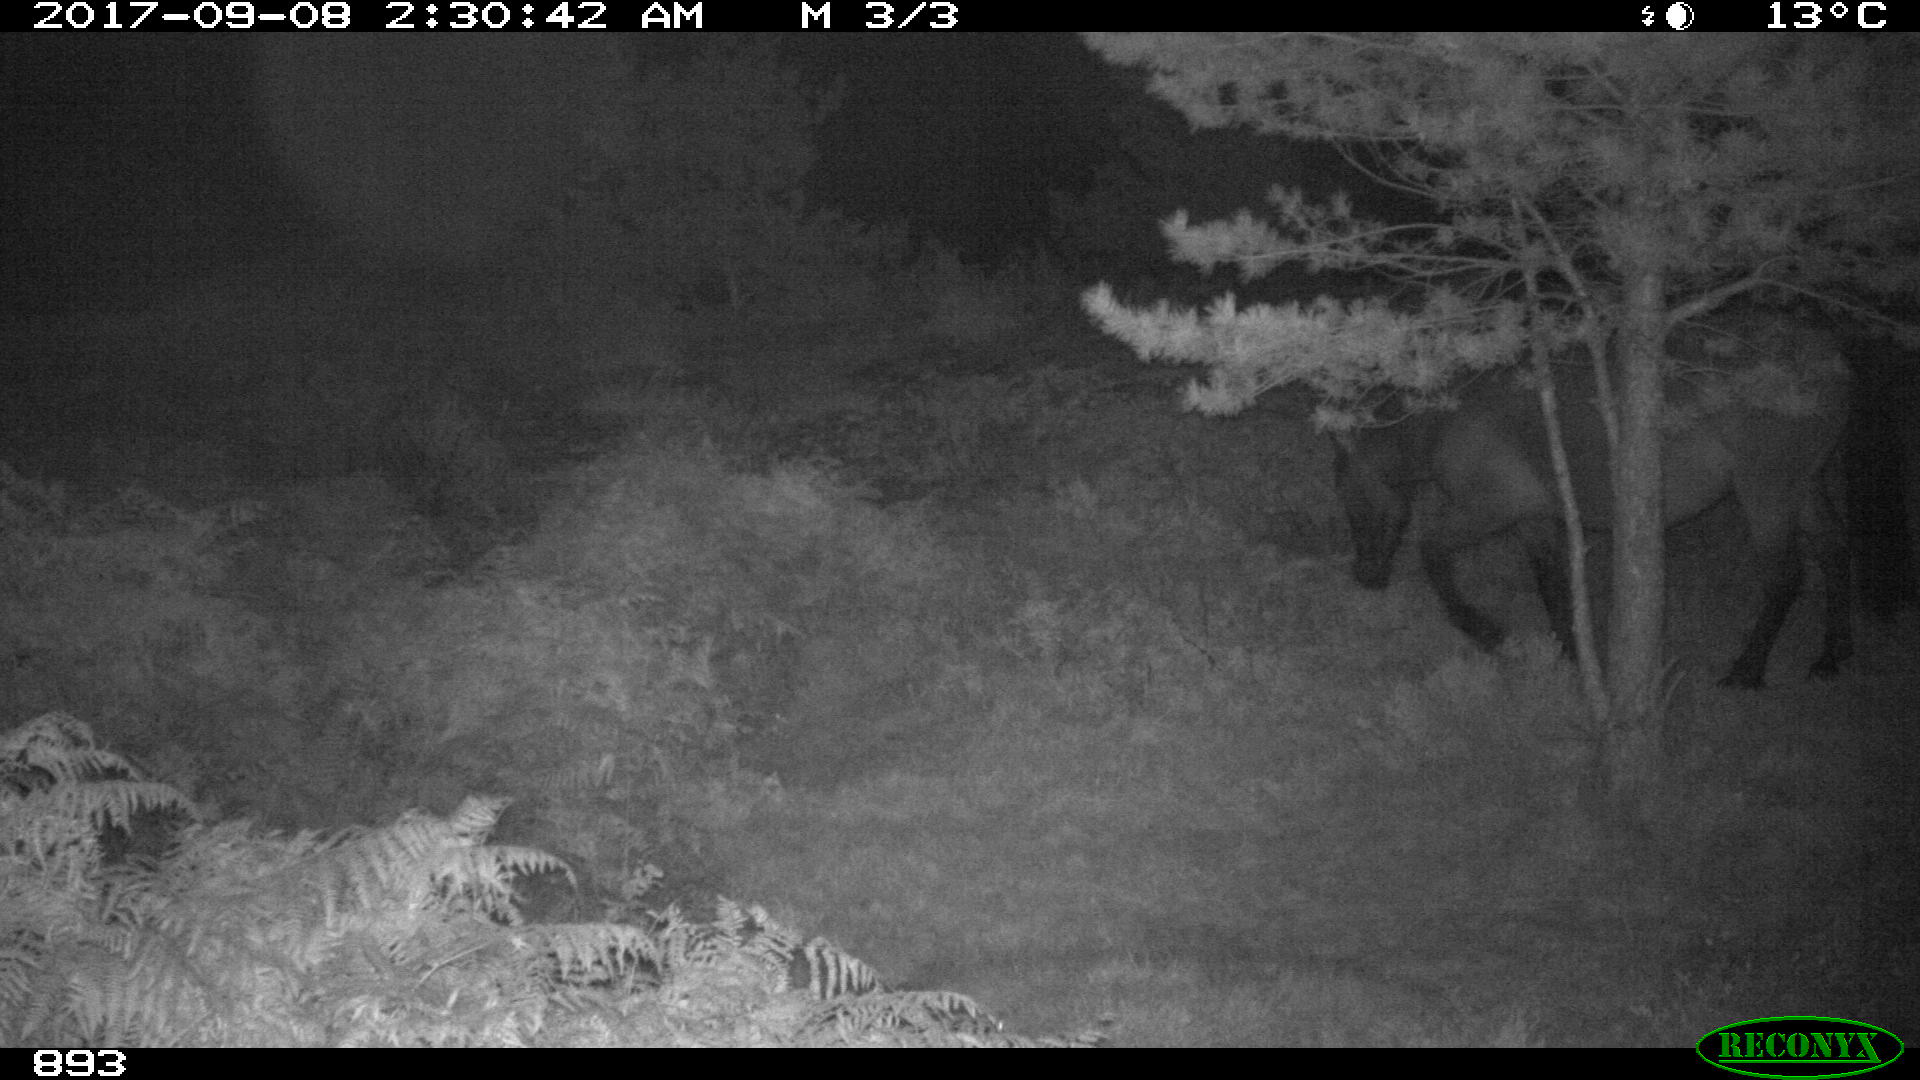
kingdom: Animalia
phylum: Chordata
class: Mammalia
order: Perissodactyla
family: Equidae
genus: Equus
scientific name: Equus caballus
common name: Horse
